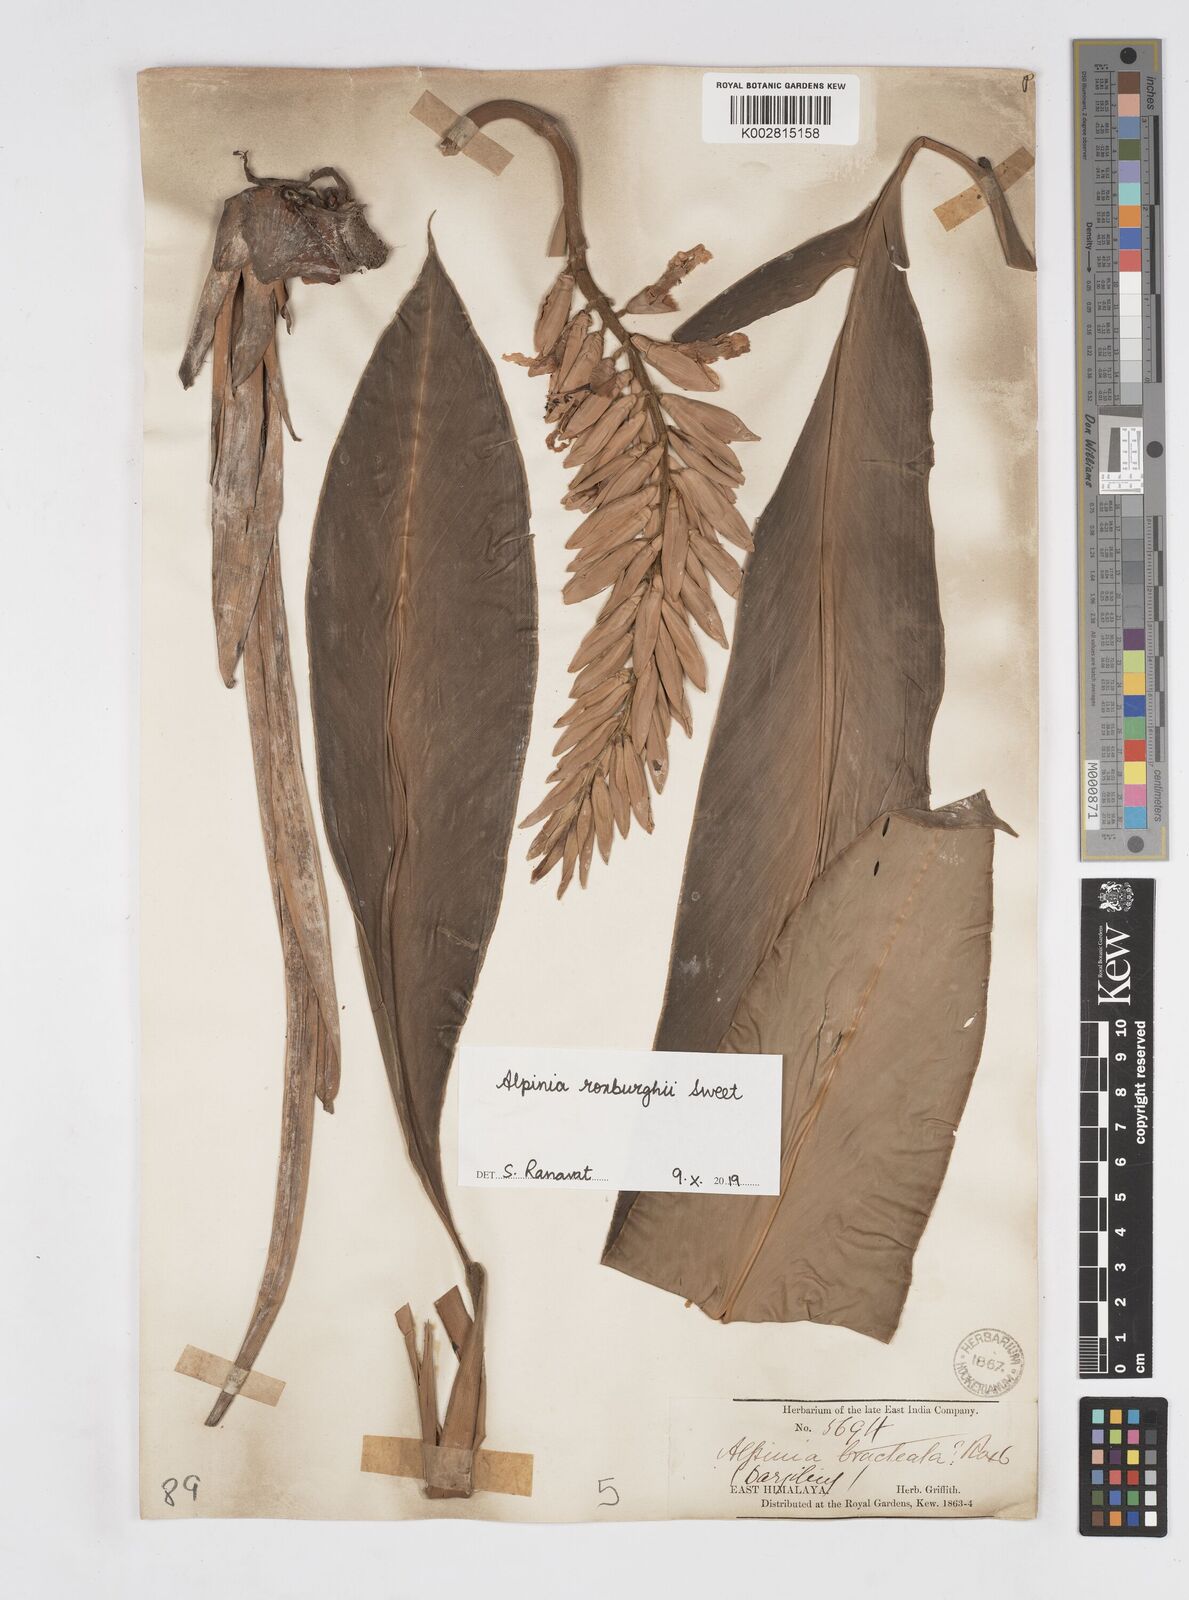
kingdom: Plantae
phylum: Tracheophyta
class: Liliopsida
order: Zingiberales
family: Zingiberaceae
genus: Alpinia
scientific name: Alpinia roxburghii
